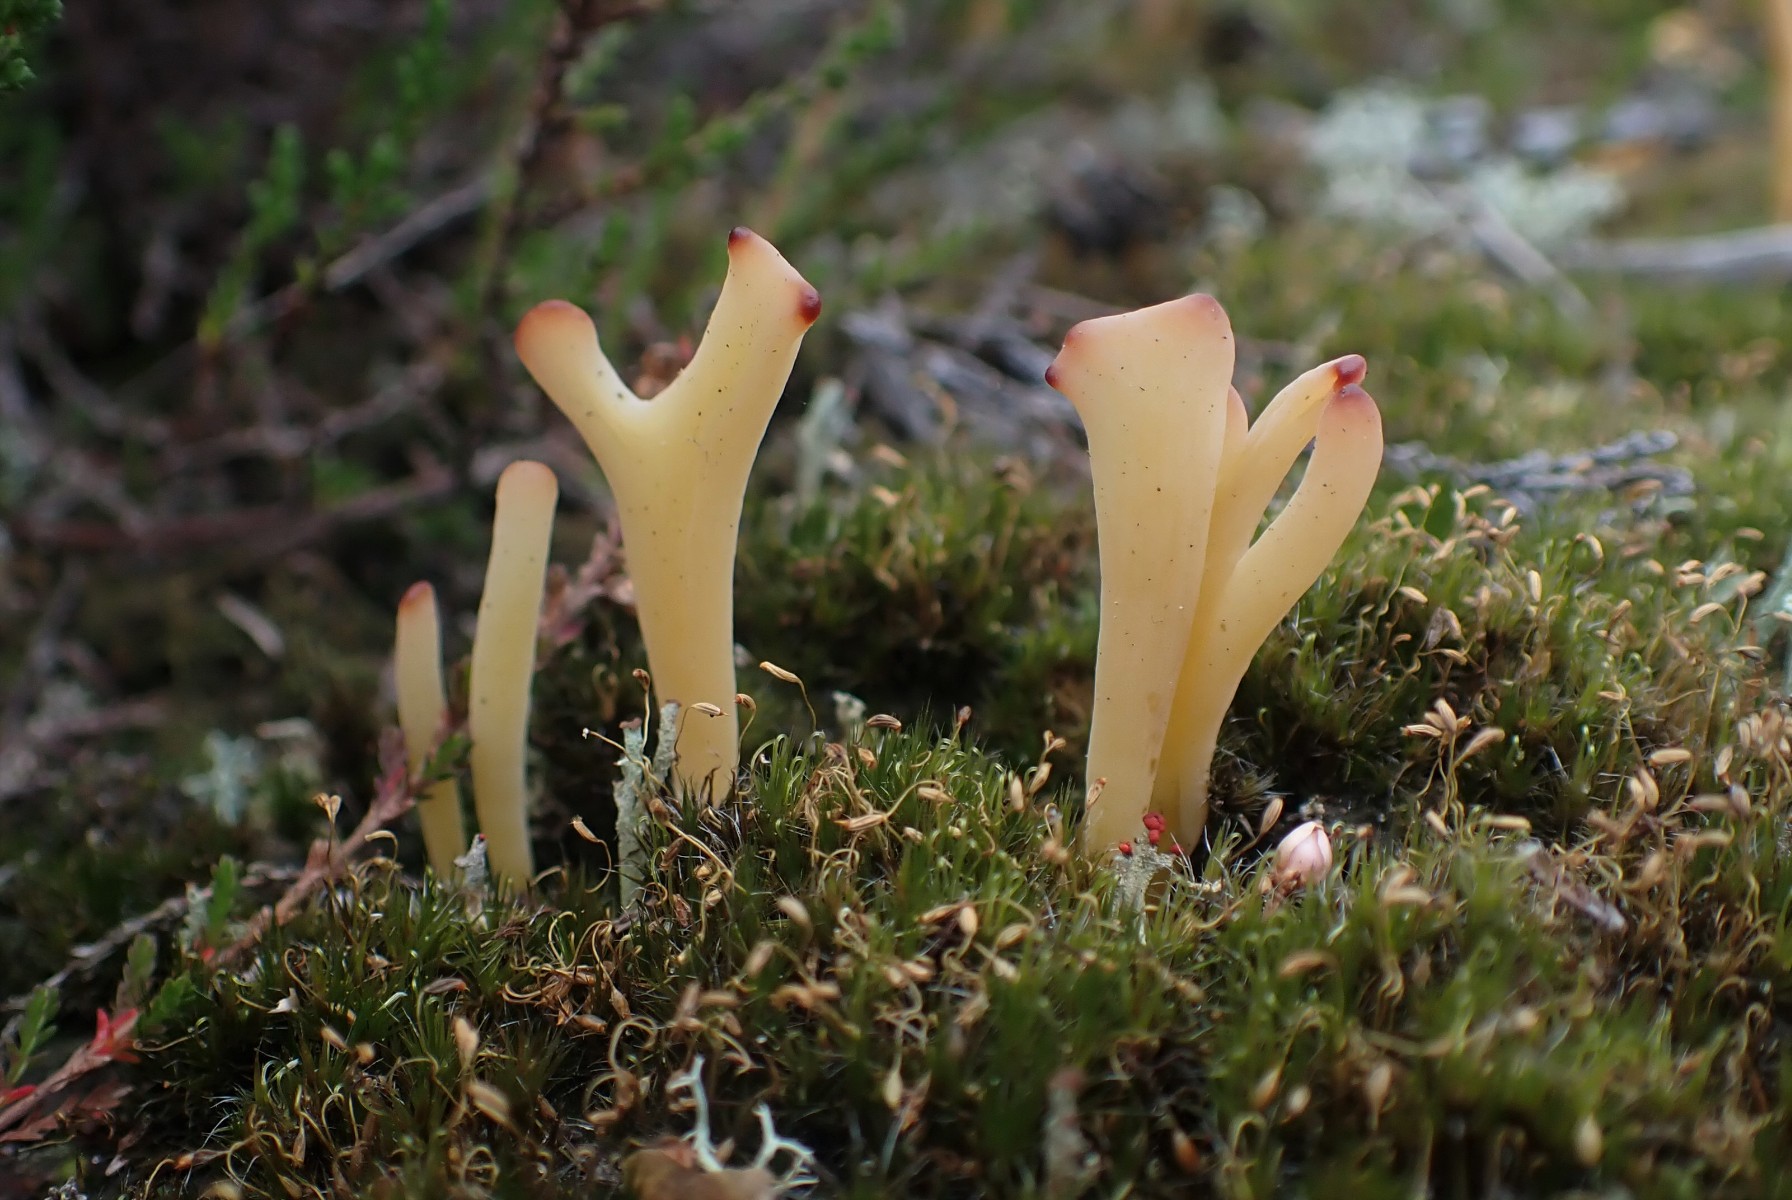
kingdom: Fungi
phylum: Basidiomycota
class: Agaricomycetes
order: Agaricales
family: Clavariaceae
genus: Clavaria
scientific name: Clavaria argillacea
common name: lerfarvet køllesvamp
